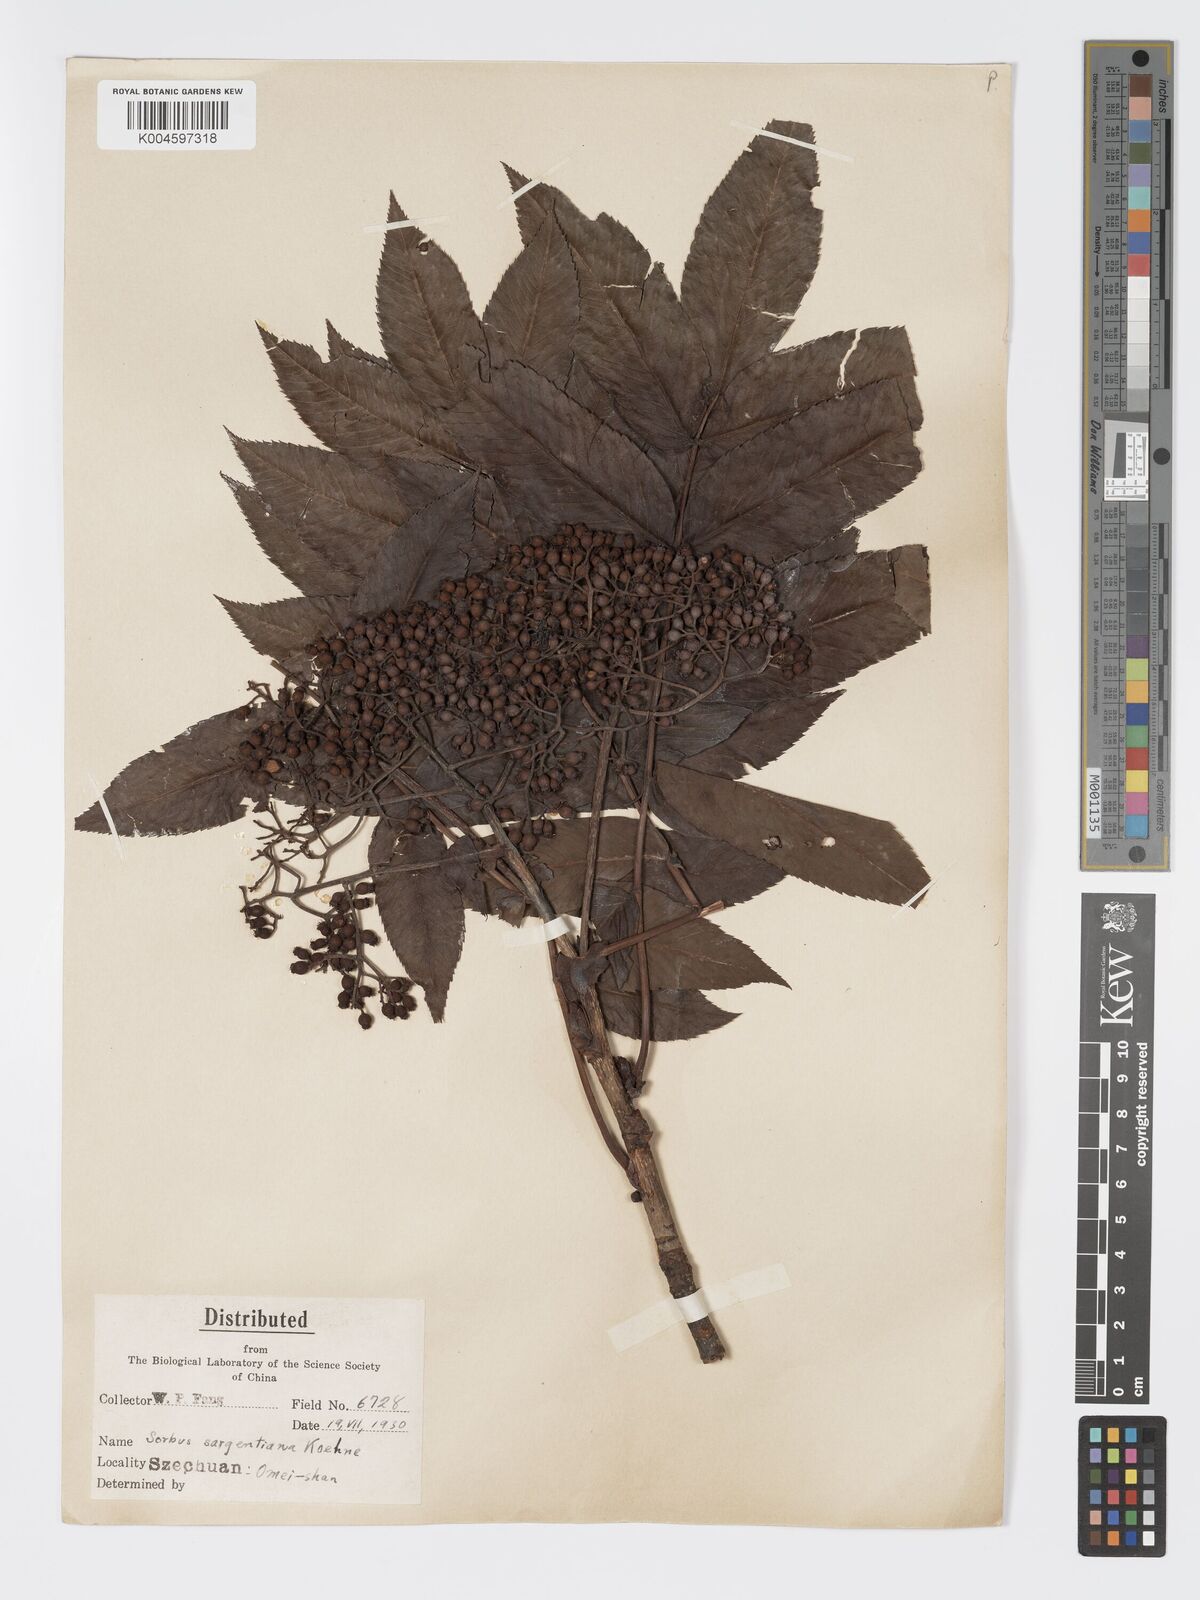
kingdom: Plantae
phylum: Tracheophyta
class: Magnoliopsida
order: Rosales
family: Rosaceae
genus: Sorbus
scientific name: Sorbus sargentiana
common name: Sargent's rowan
